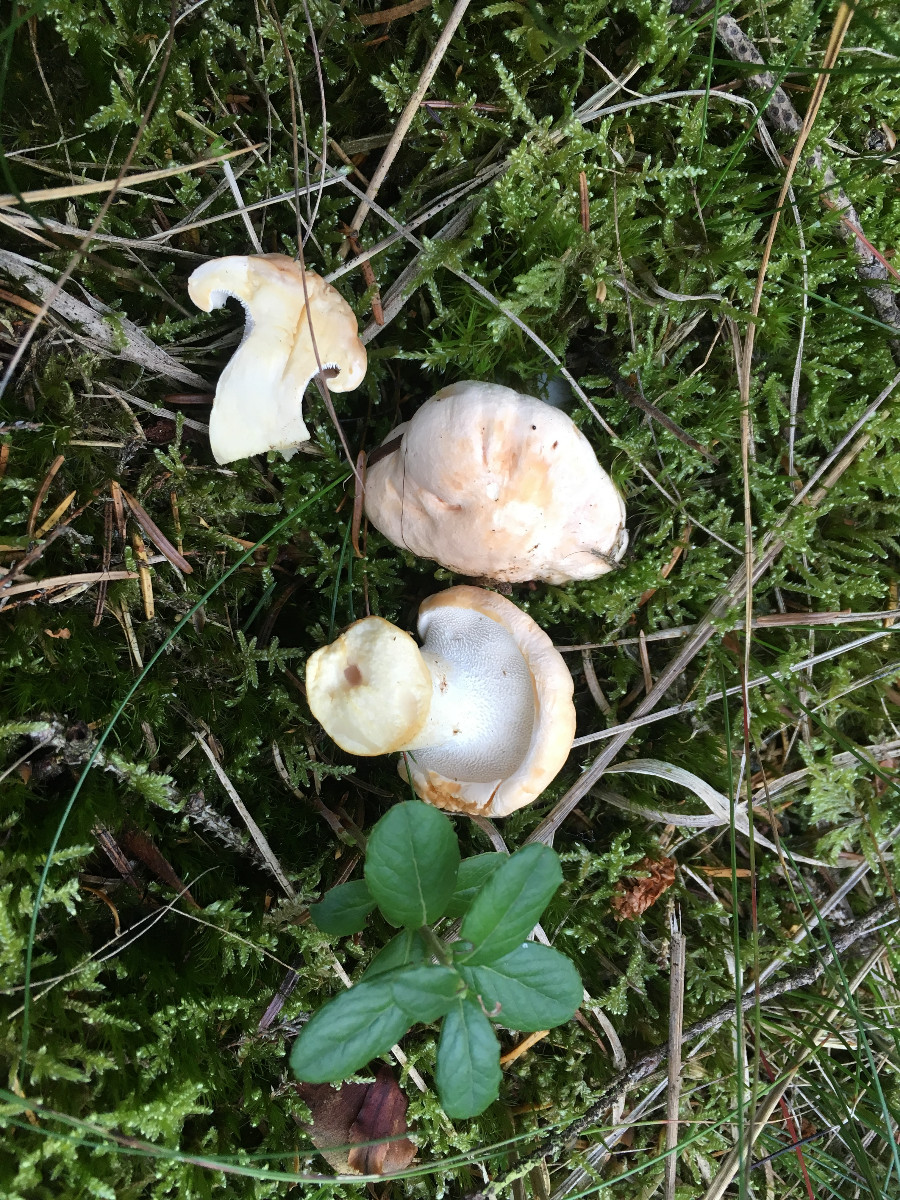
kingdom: Fungi
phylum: Basidiomycota
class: Agaricomycetes
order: Cantharellales
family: Hydnaceae
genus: Hydnum
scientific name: Hydnum repandum
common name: almindelig pigsvamp
